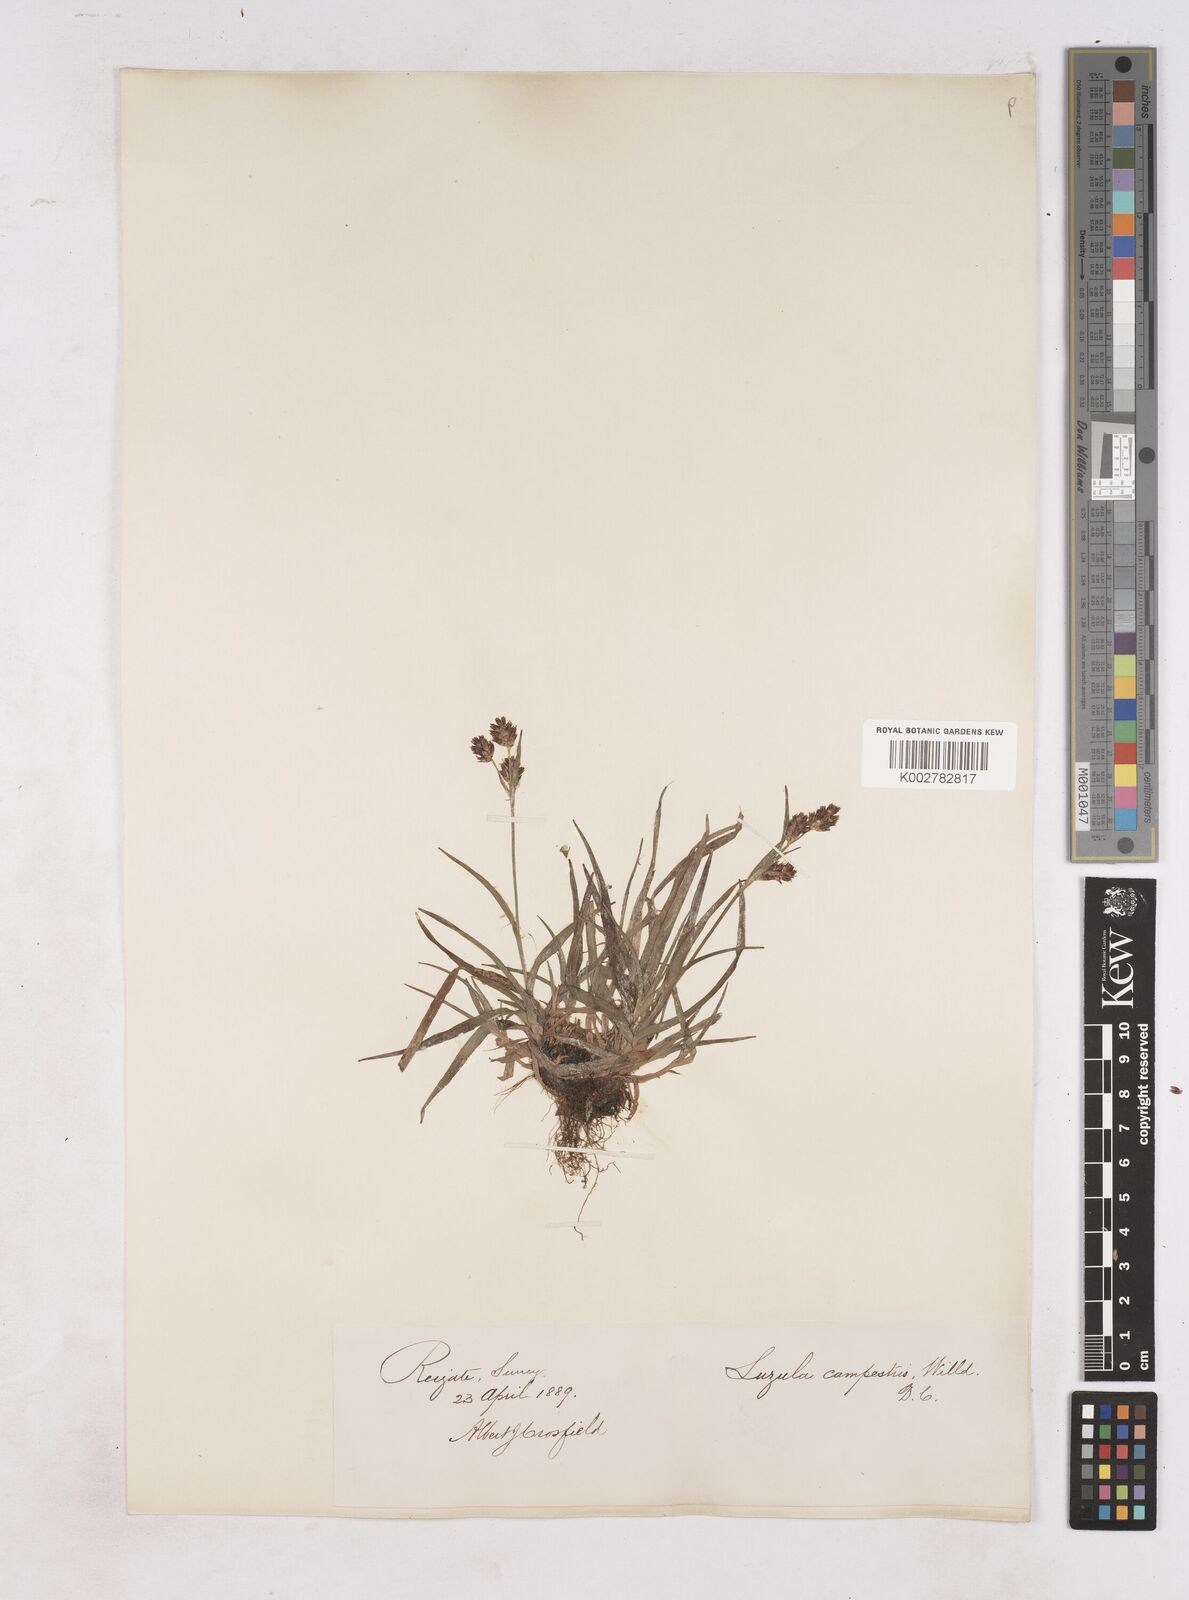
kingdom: Plantae
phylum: Tracheophyta
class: Liliopsida
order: Poales
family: Juncaceae
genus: Luzula
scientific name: Luzula campestris
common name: Field wood-rush
